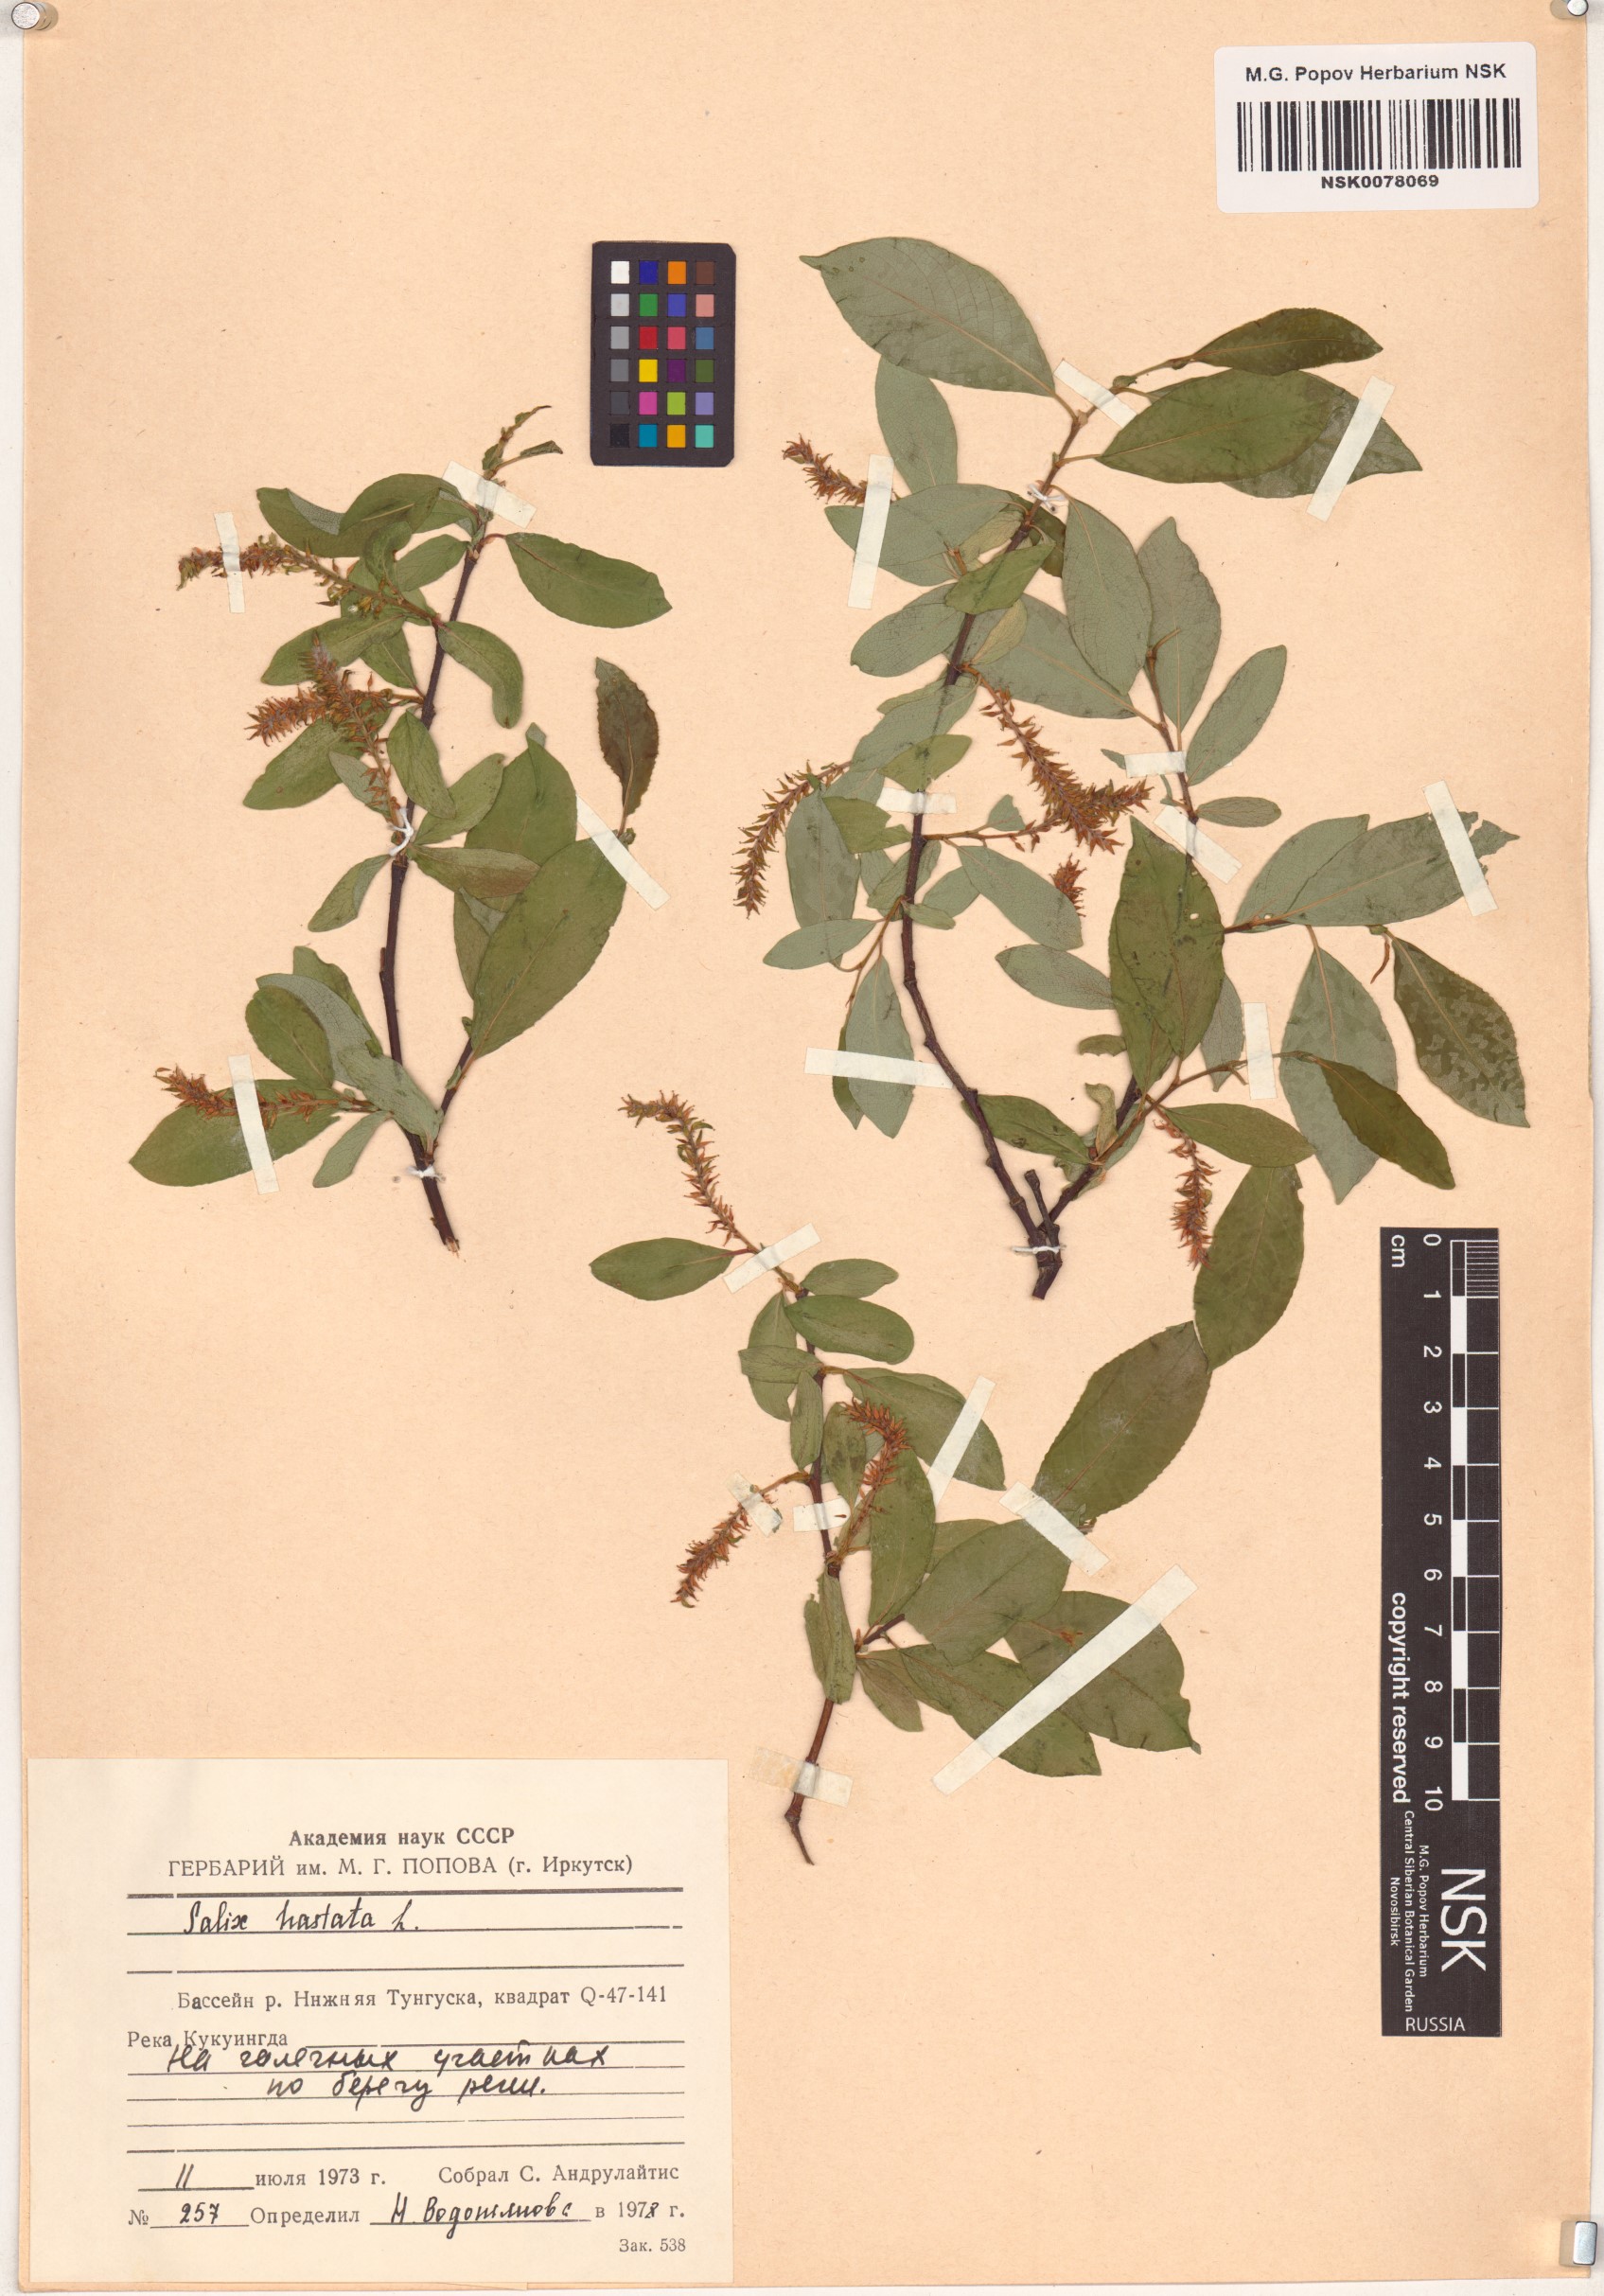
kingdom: Plantae
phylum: Tracheophyta
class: Magnoliopsida
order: Malpighiales
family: Salicaceae
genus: Salix
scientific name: Salix hastata
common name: Halberd willow
